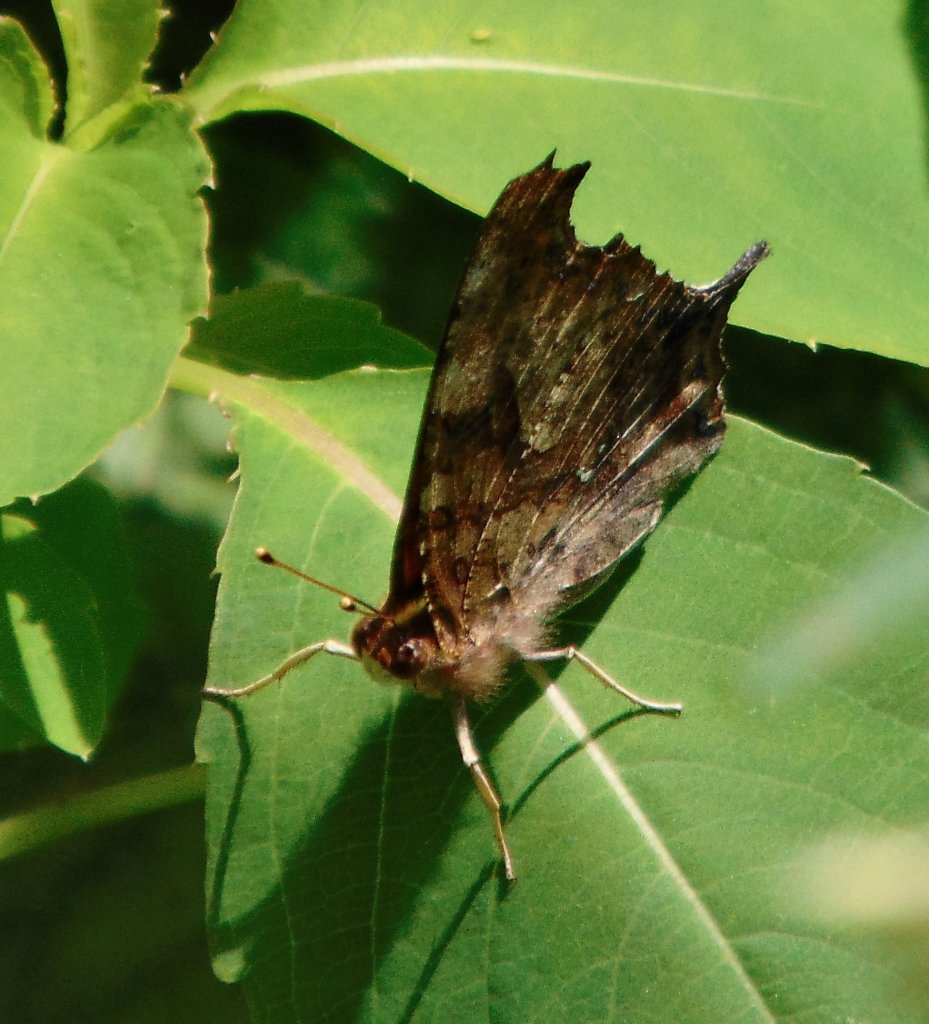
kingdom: Animalia
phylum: Arthropoda
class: Insecta
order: Lepidoptera
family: Nymphalidae
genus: Polygonia
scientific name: Polygonia interrogationis
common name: Question Mark
